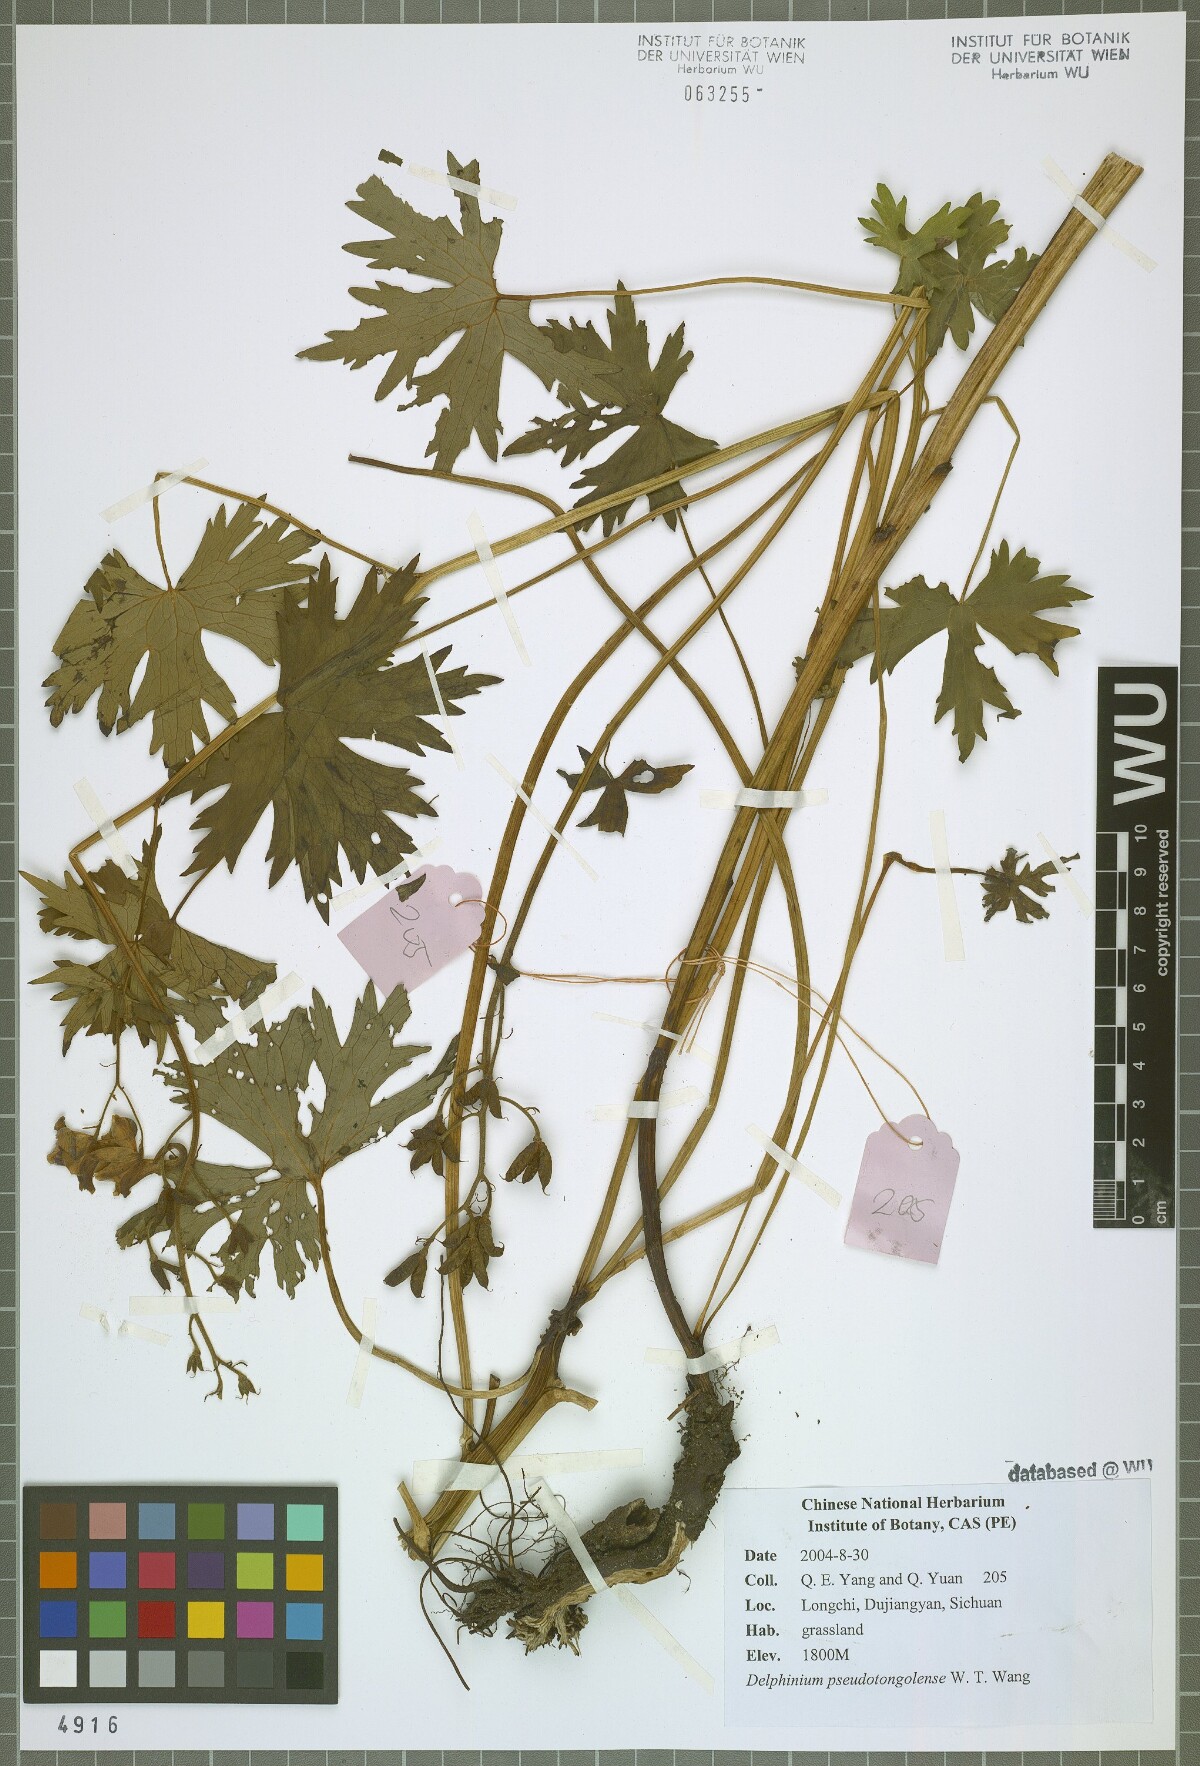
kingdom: Plantae
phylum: Tracheophyta
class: Magnoliopsida
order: Ranunculales
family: Ranunculaceae
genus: Delphinium
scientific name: Delphinium pseudotongolense
